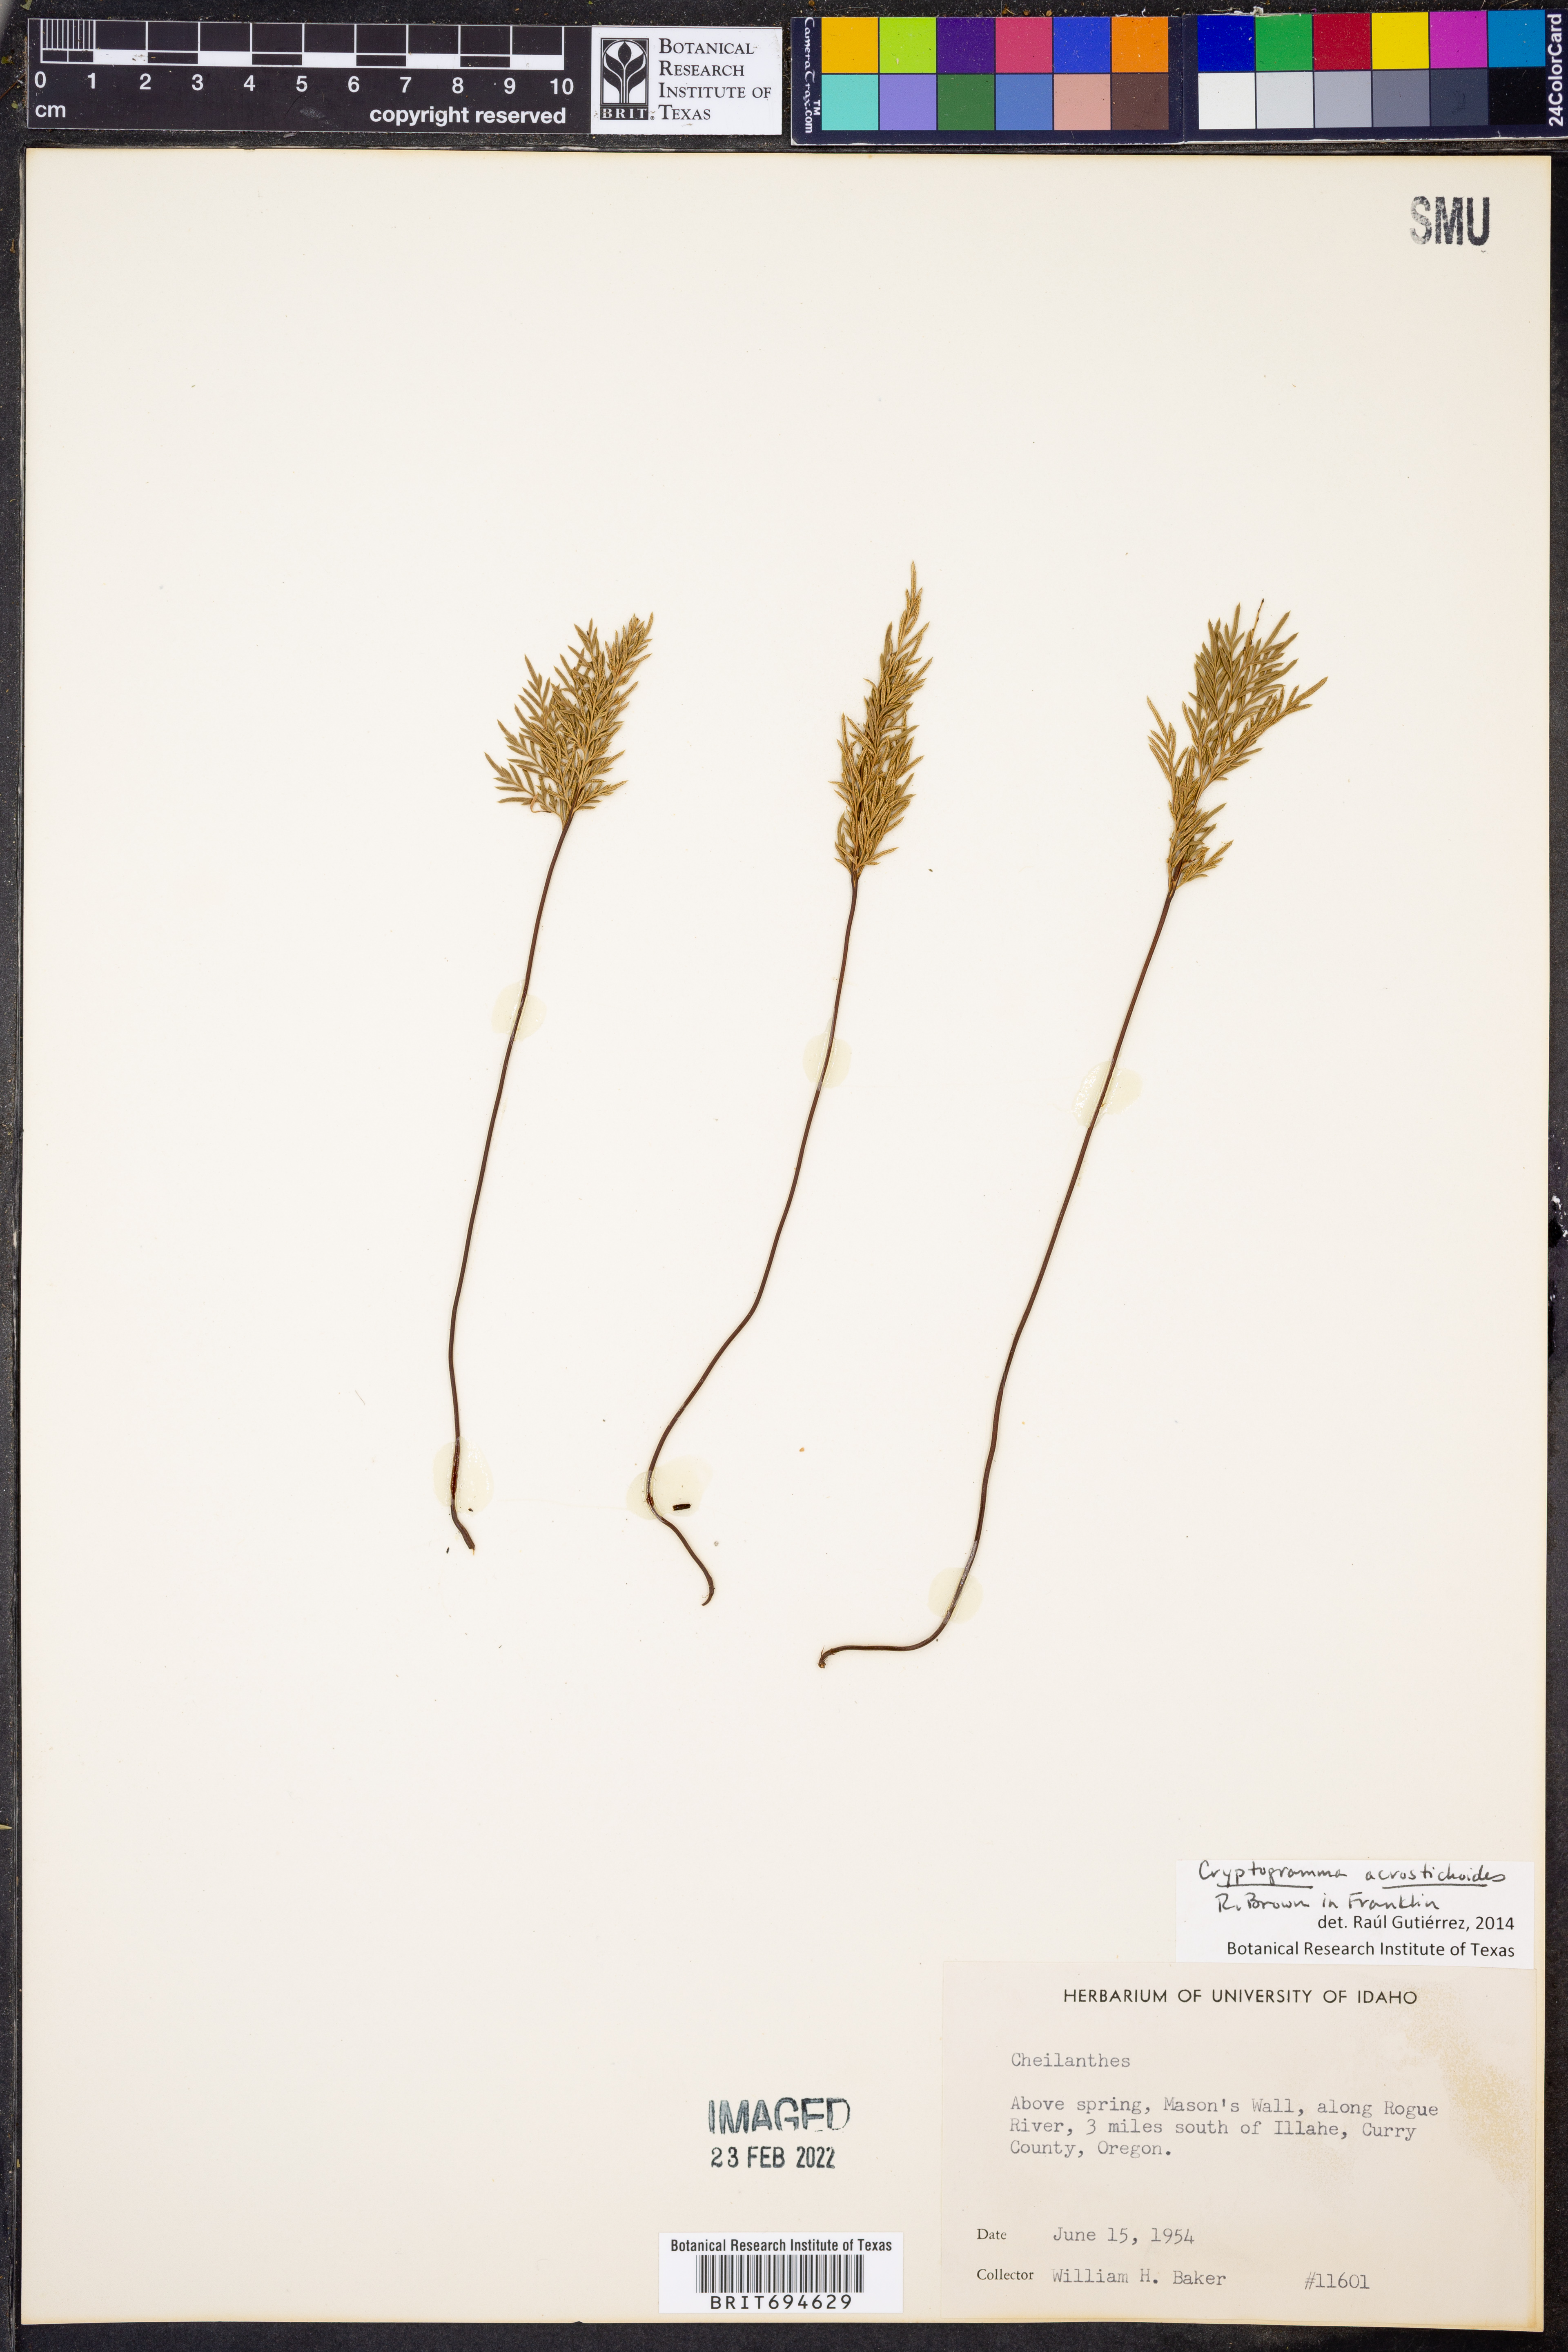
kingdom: Plantae
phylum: Tracheophyta
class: Polypodiopsida
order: Polypodiales
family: Pteridaceae
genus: Cryptogramma
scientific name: Cryptogramma acrostichoides
